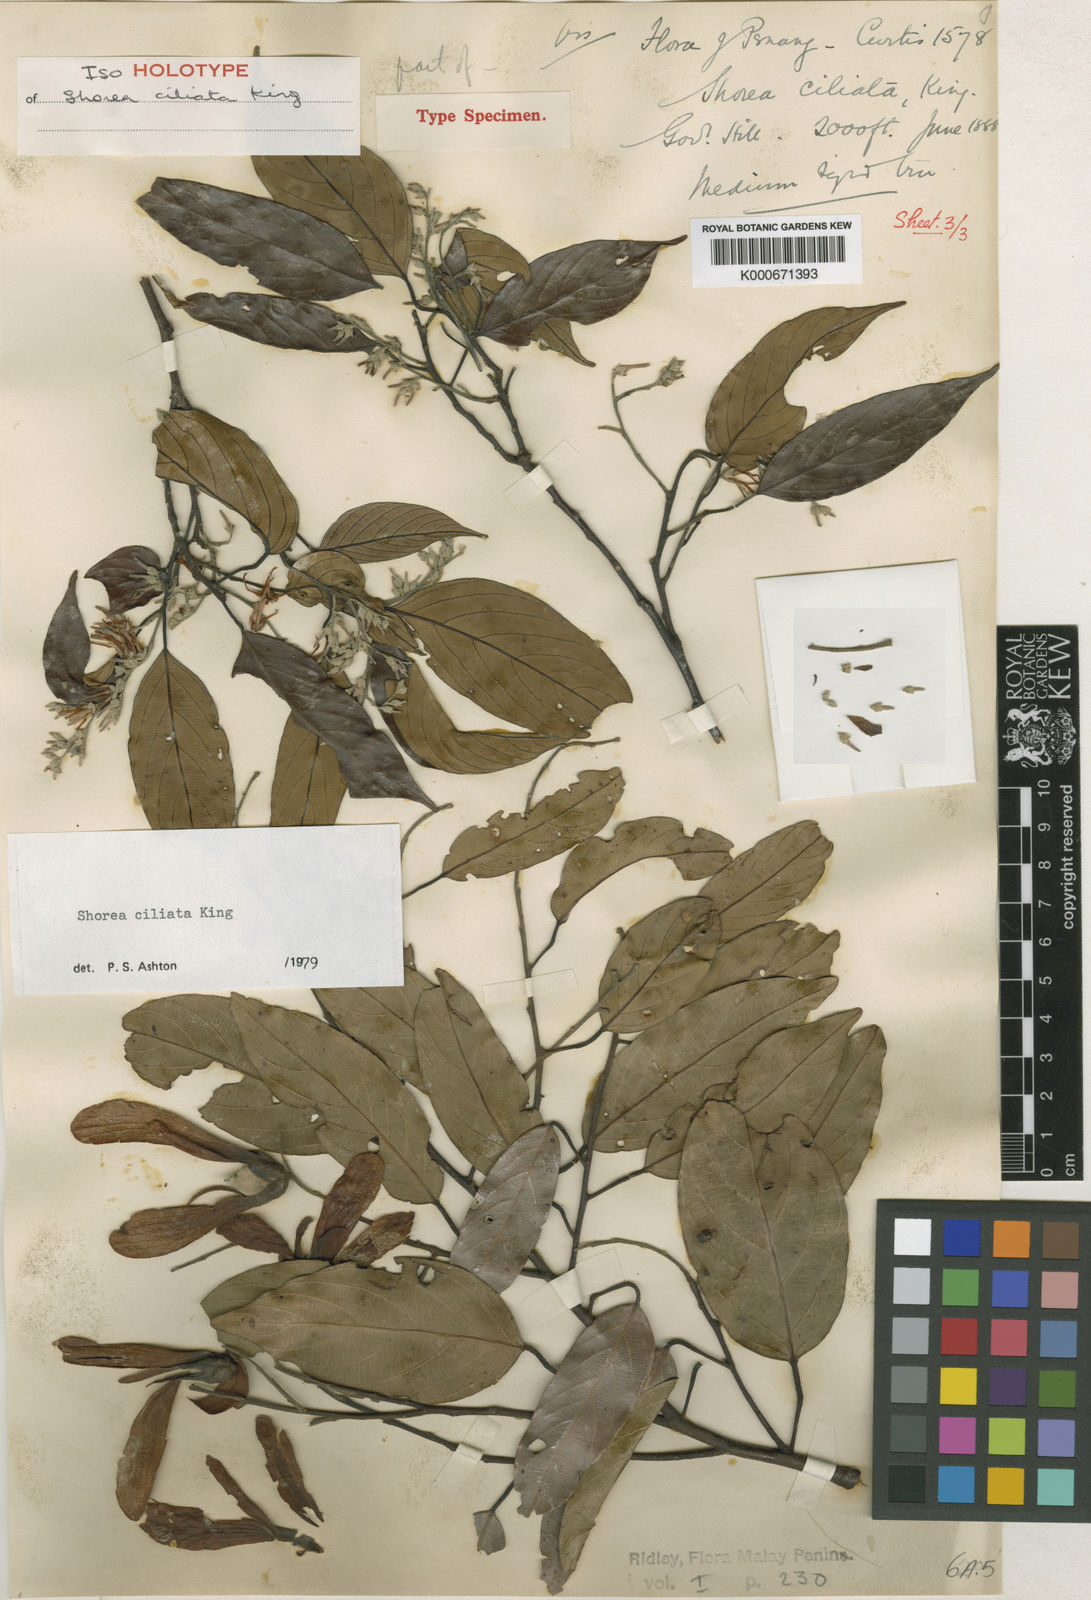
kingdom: Plantae
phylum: Tracheophyta
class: Magnoliopsida
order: Malvales
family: Dipterocarpaceae
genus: Shorea
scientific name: Shorea ciliata
